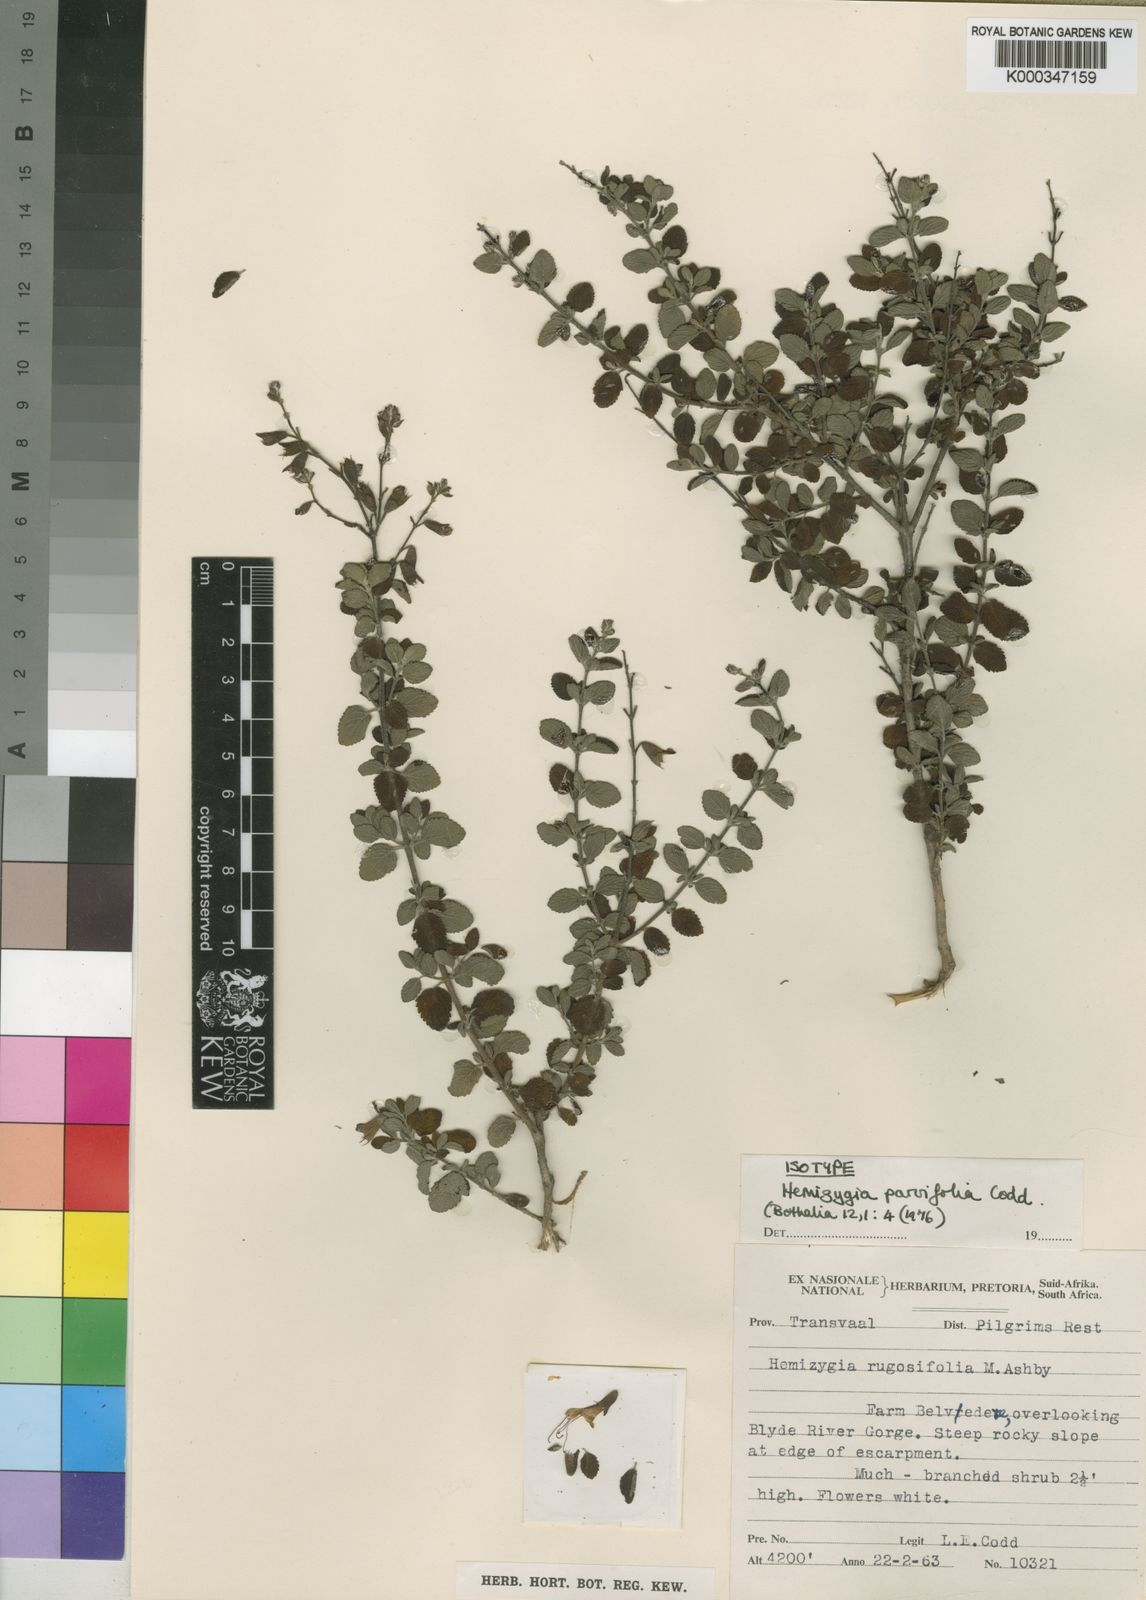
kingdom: Plantae
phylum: Tracheophyta
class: Magnoliopsida
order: Lamiales
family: Lamiaceae
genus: Syncolostemon
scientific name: Syncolostemon parvifolius
